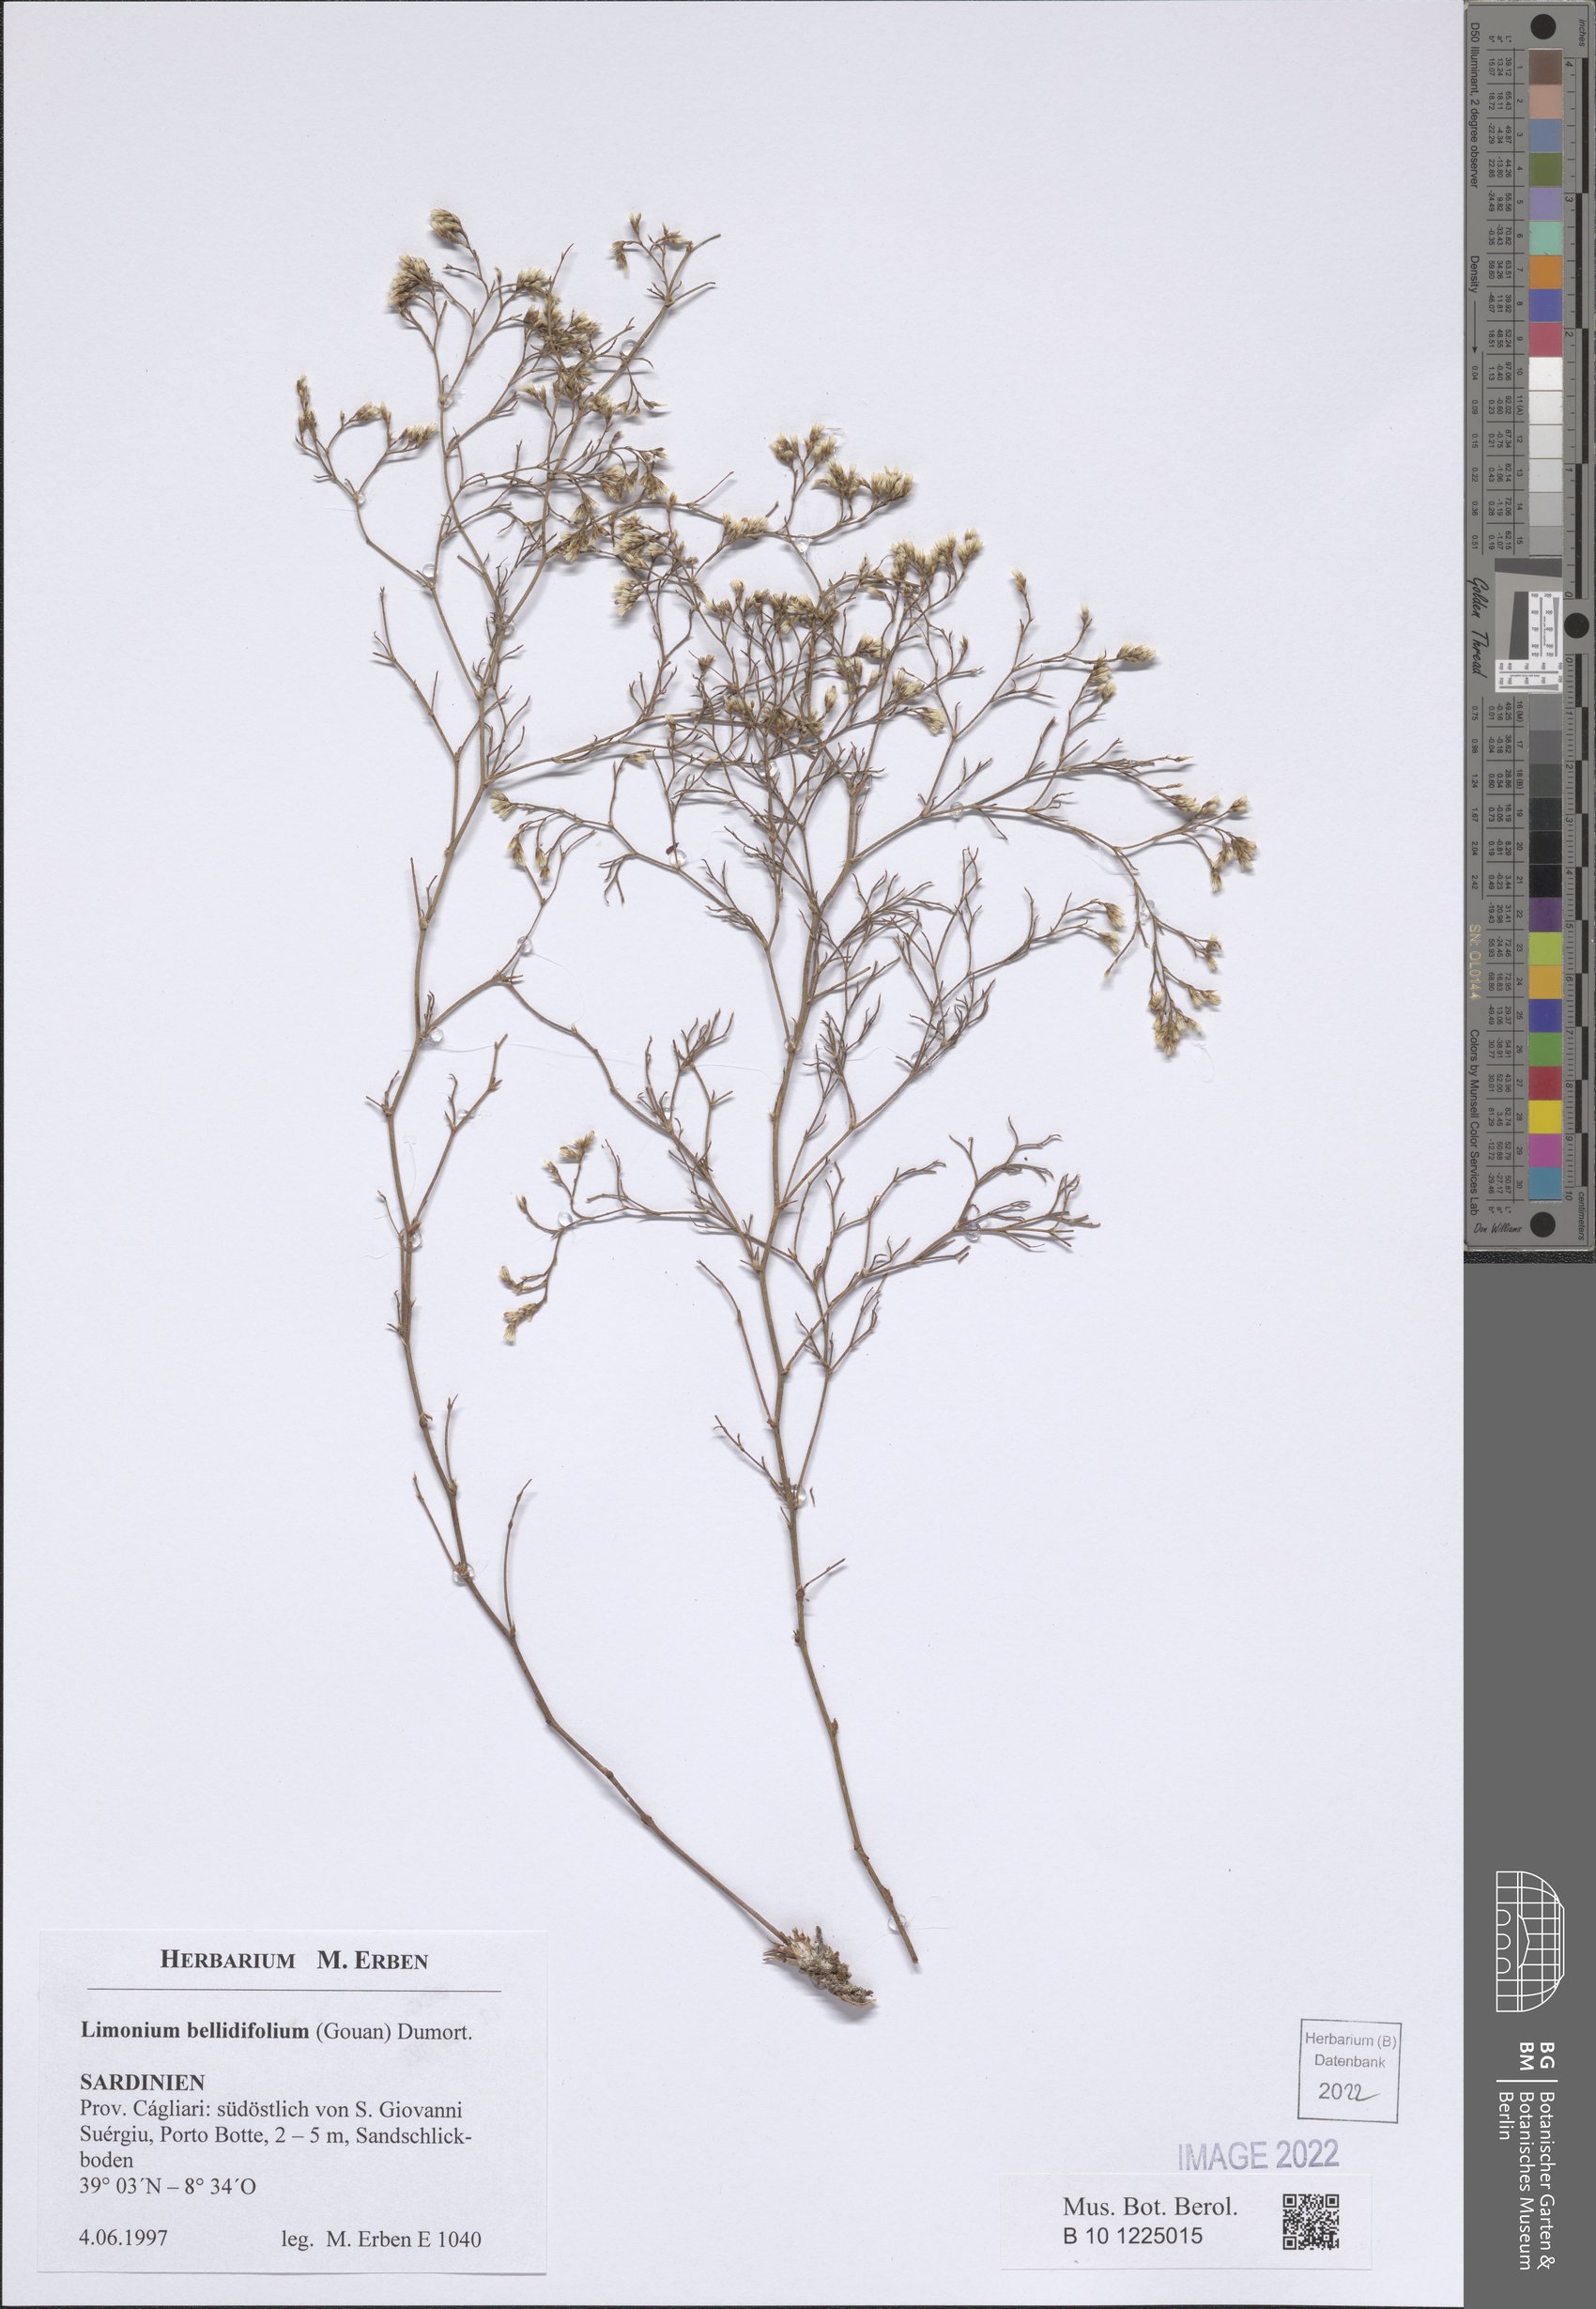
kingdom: Plantae
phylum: Tracheophyta
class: Magnoliopsida
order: Caryophyllales
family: Plumbaginaceae
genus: Limonium
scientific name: Limonium bellidifolium
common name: Matted sea-lavender
